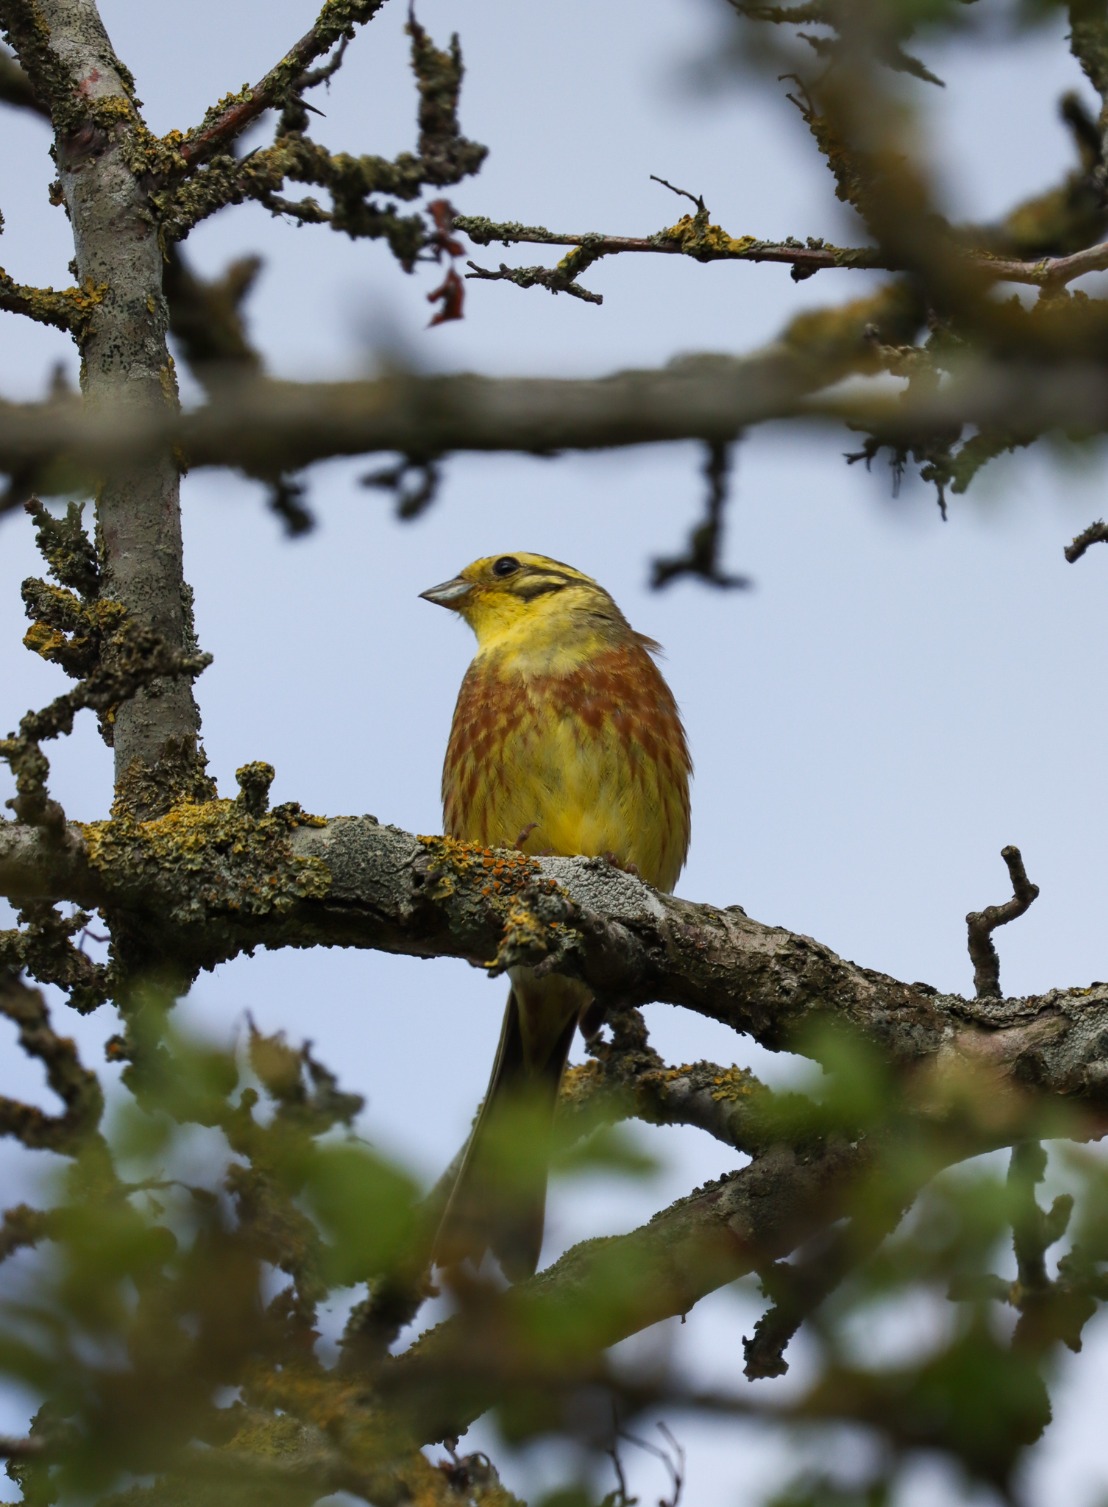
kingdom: Animalia
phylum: Chordata
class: Aves
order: Passeriformes
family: Emberizidae
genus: Emberiza
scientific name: Emberiza citrinella
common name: Gulspurv
